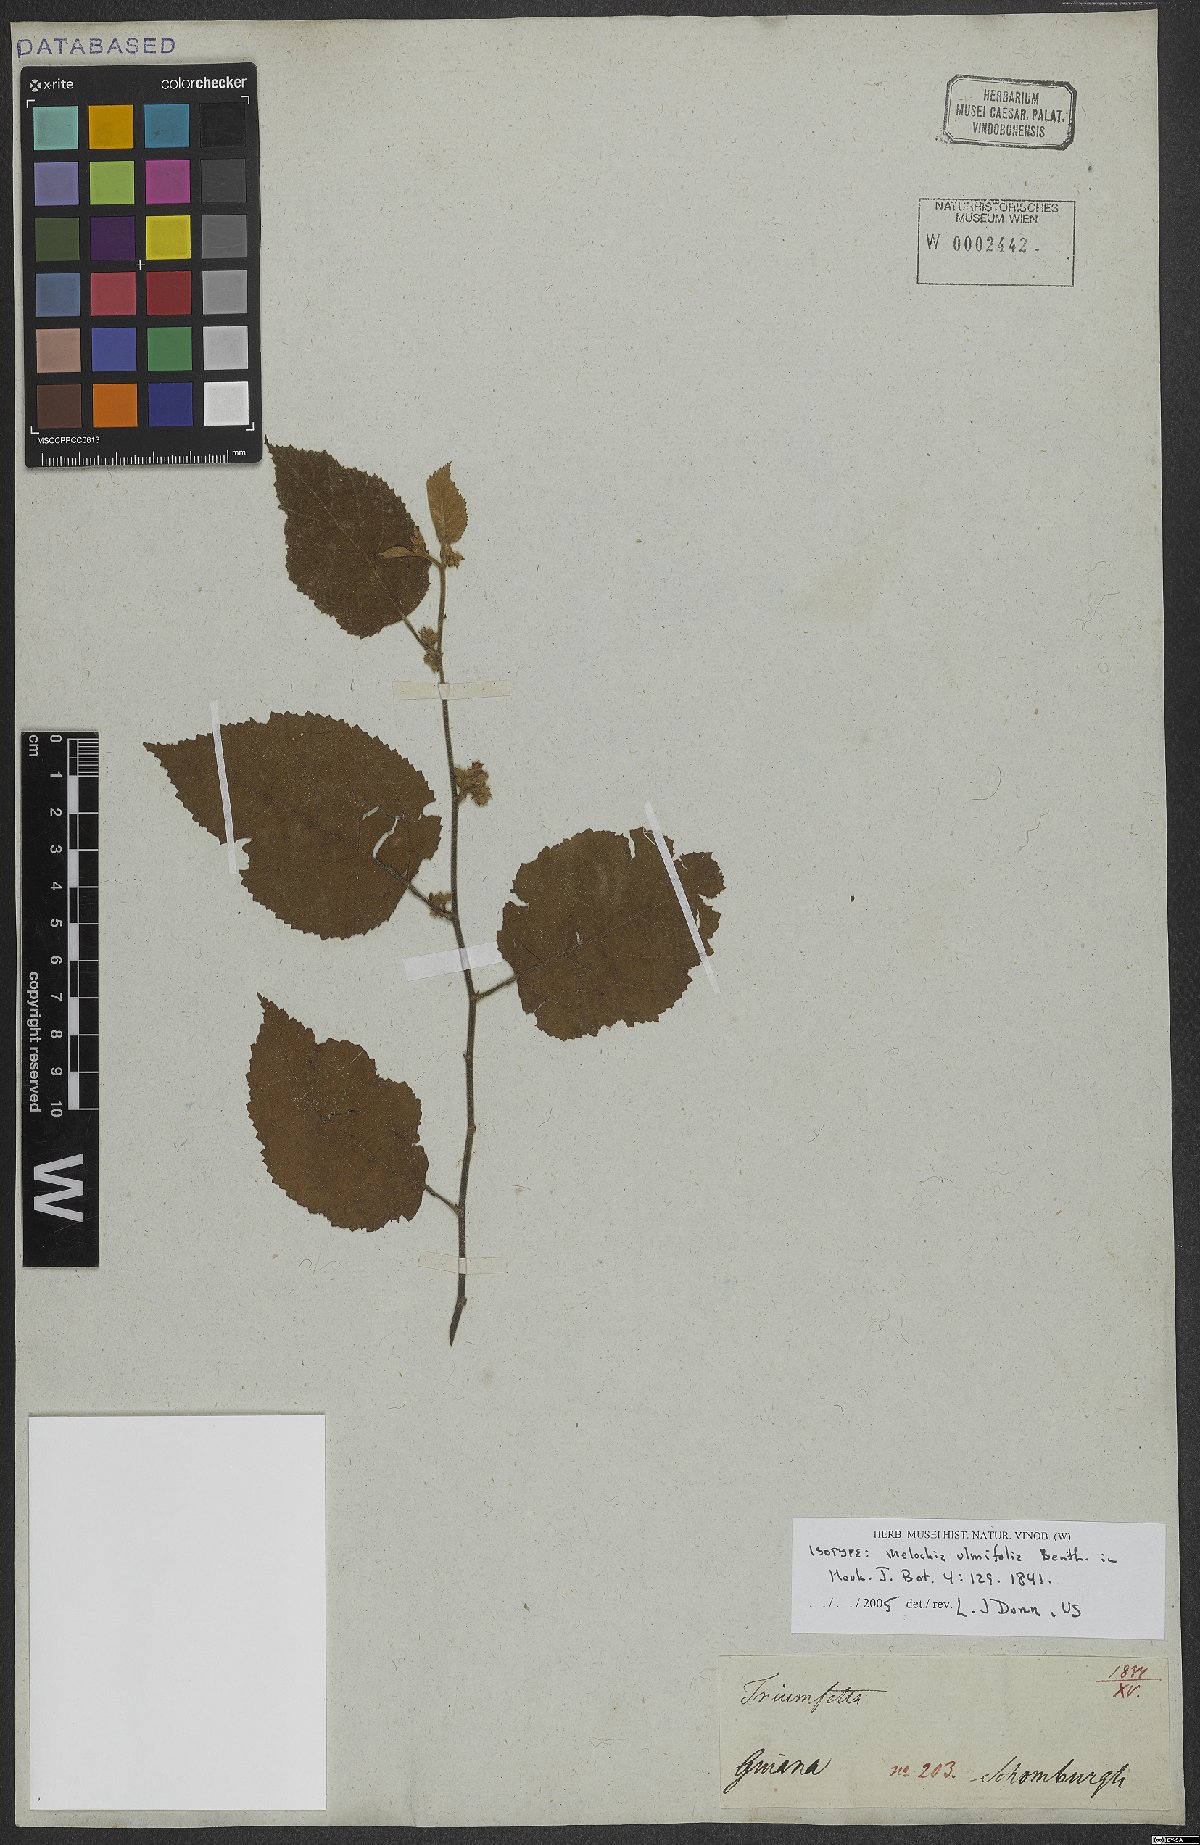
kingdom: Plantae
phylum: Tracheophyta
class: Magnoliopsida
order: Malvales
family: Malvaceae
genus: Melochia
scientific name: Melochia ulmifolia
